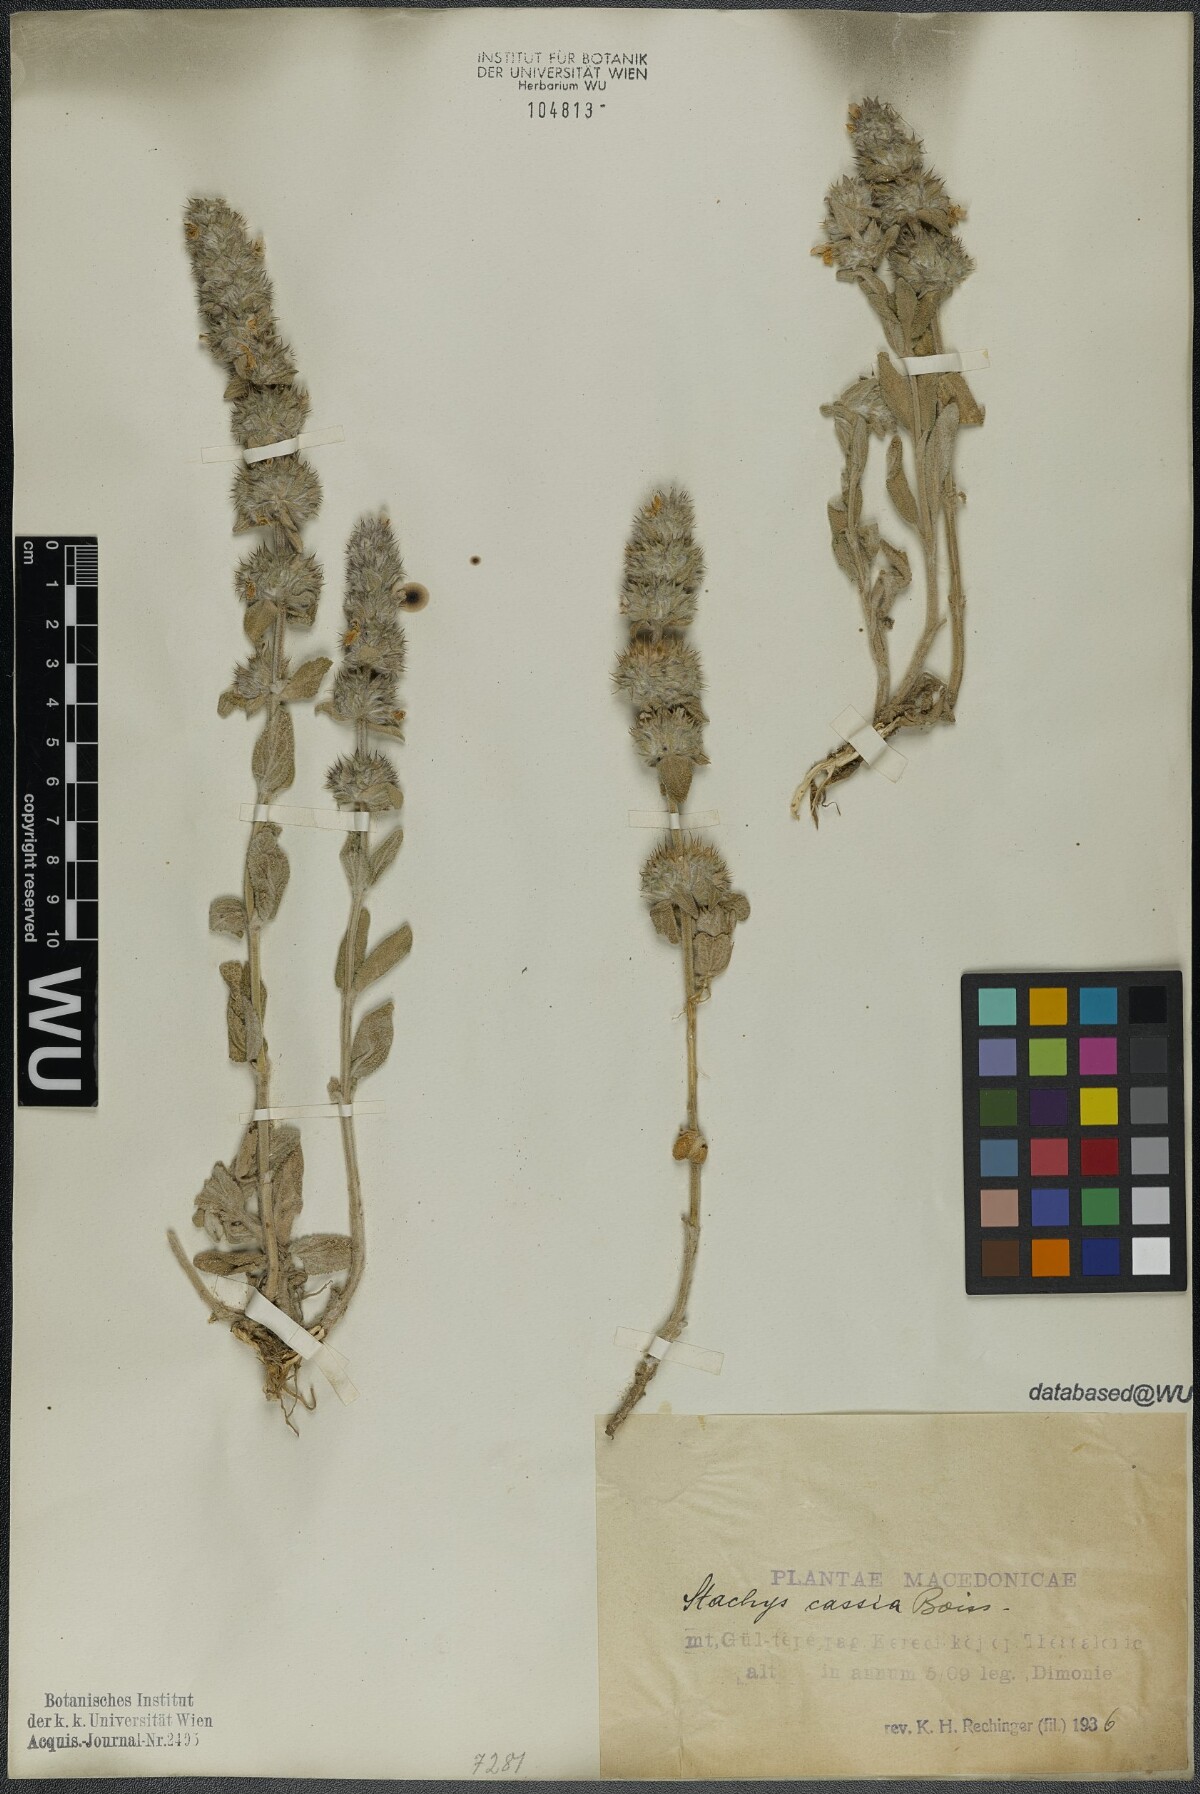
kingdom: Plantae
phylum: Tracheophyta
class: Magnoliopsida
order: Lamiales
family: Lamiaceae
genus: Stachys
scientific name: Stachys cretica
